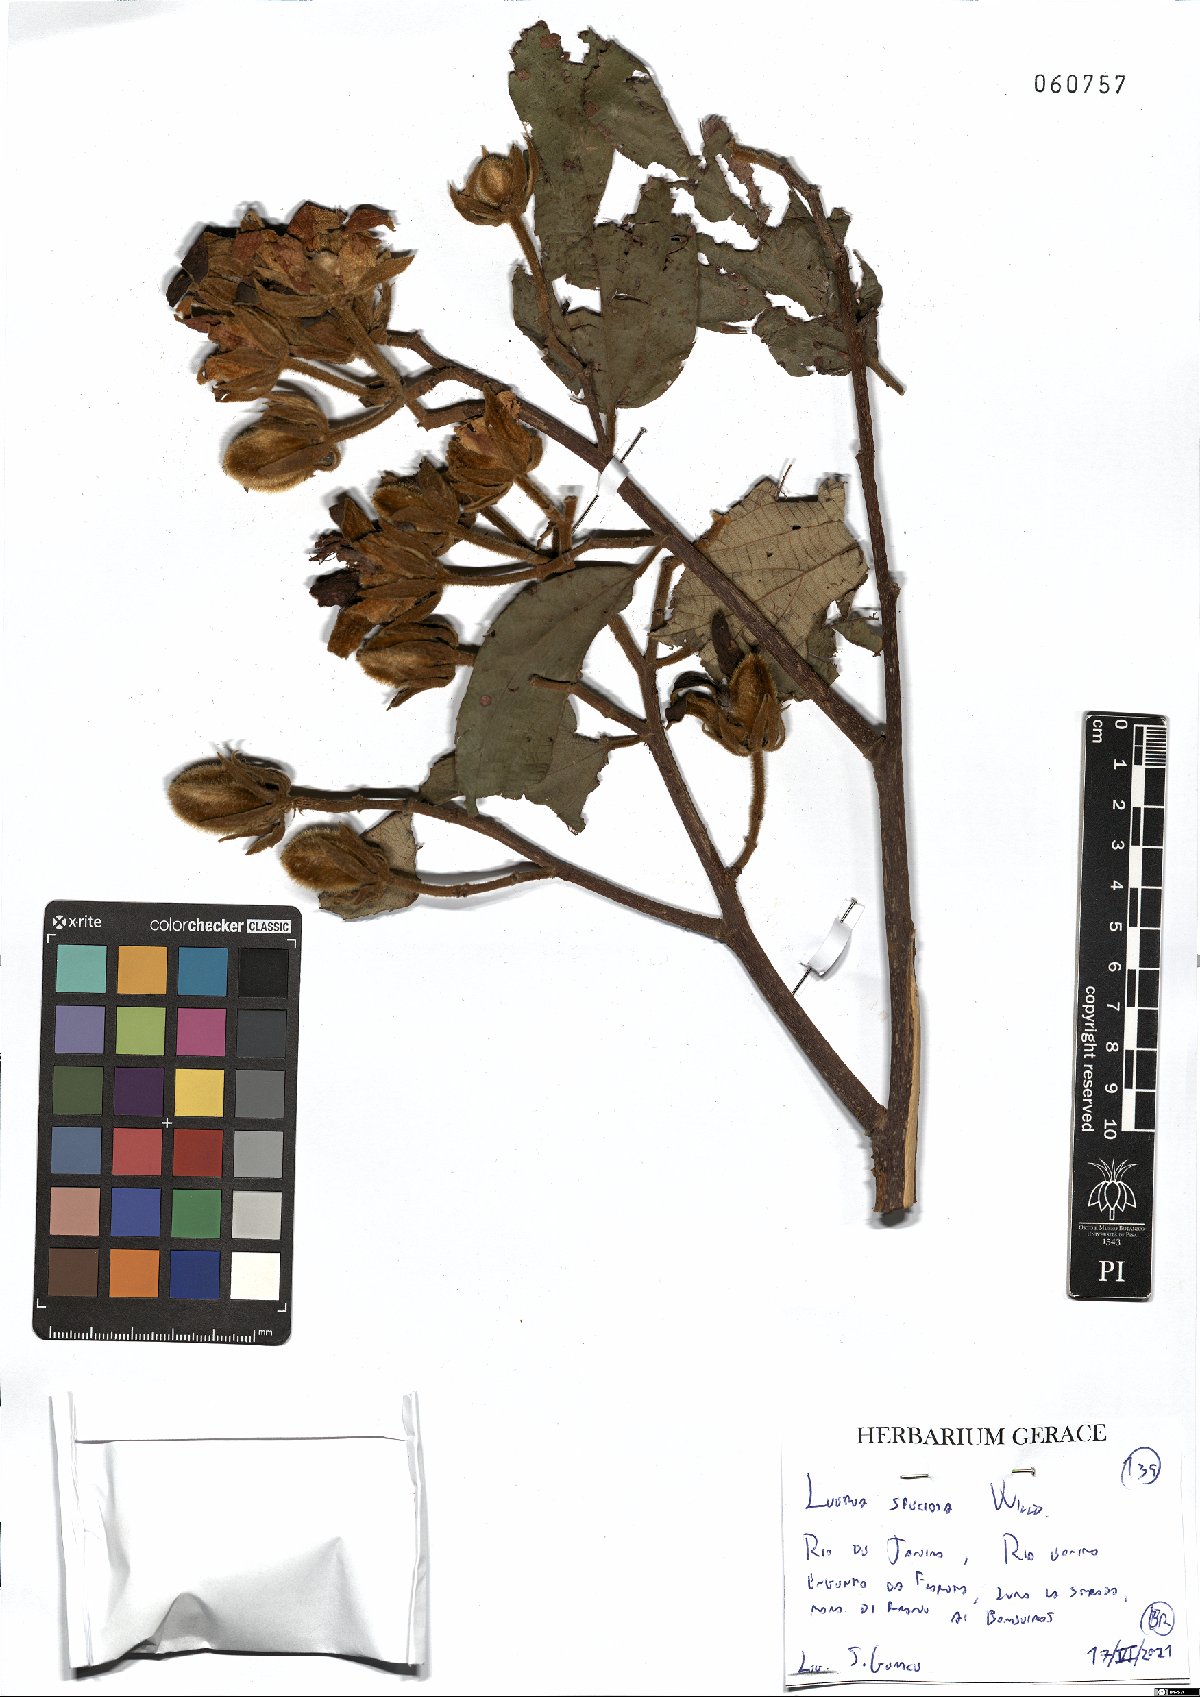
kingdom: Plantae
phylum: Tracheophyta
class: Magnoliopsida
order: Malvales
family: Malvaceae
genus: Luehea
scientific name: Luehea speciosa
